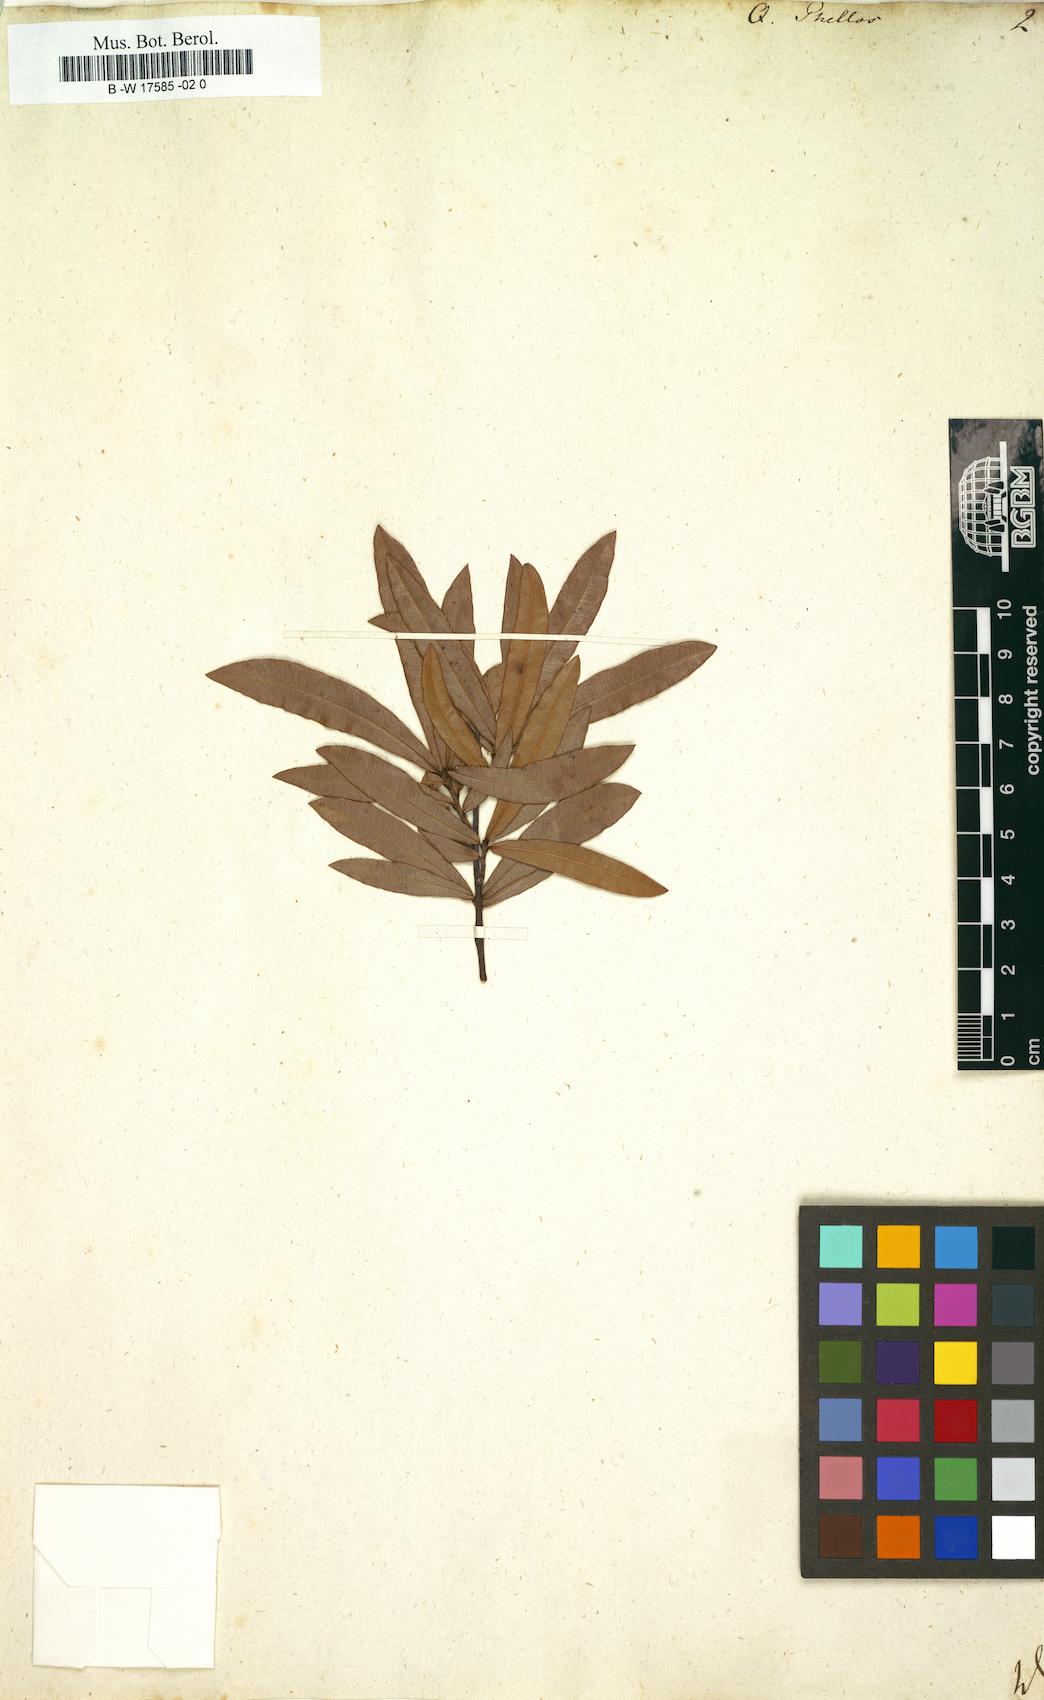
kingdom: Plantae
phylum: Tracheophyta
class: Magnoliopsida
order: Fagales
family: Fagaceae
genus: Quercus
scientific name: Quercus phellos
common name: Willow oak
